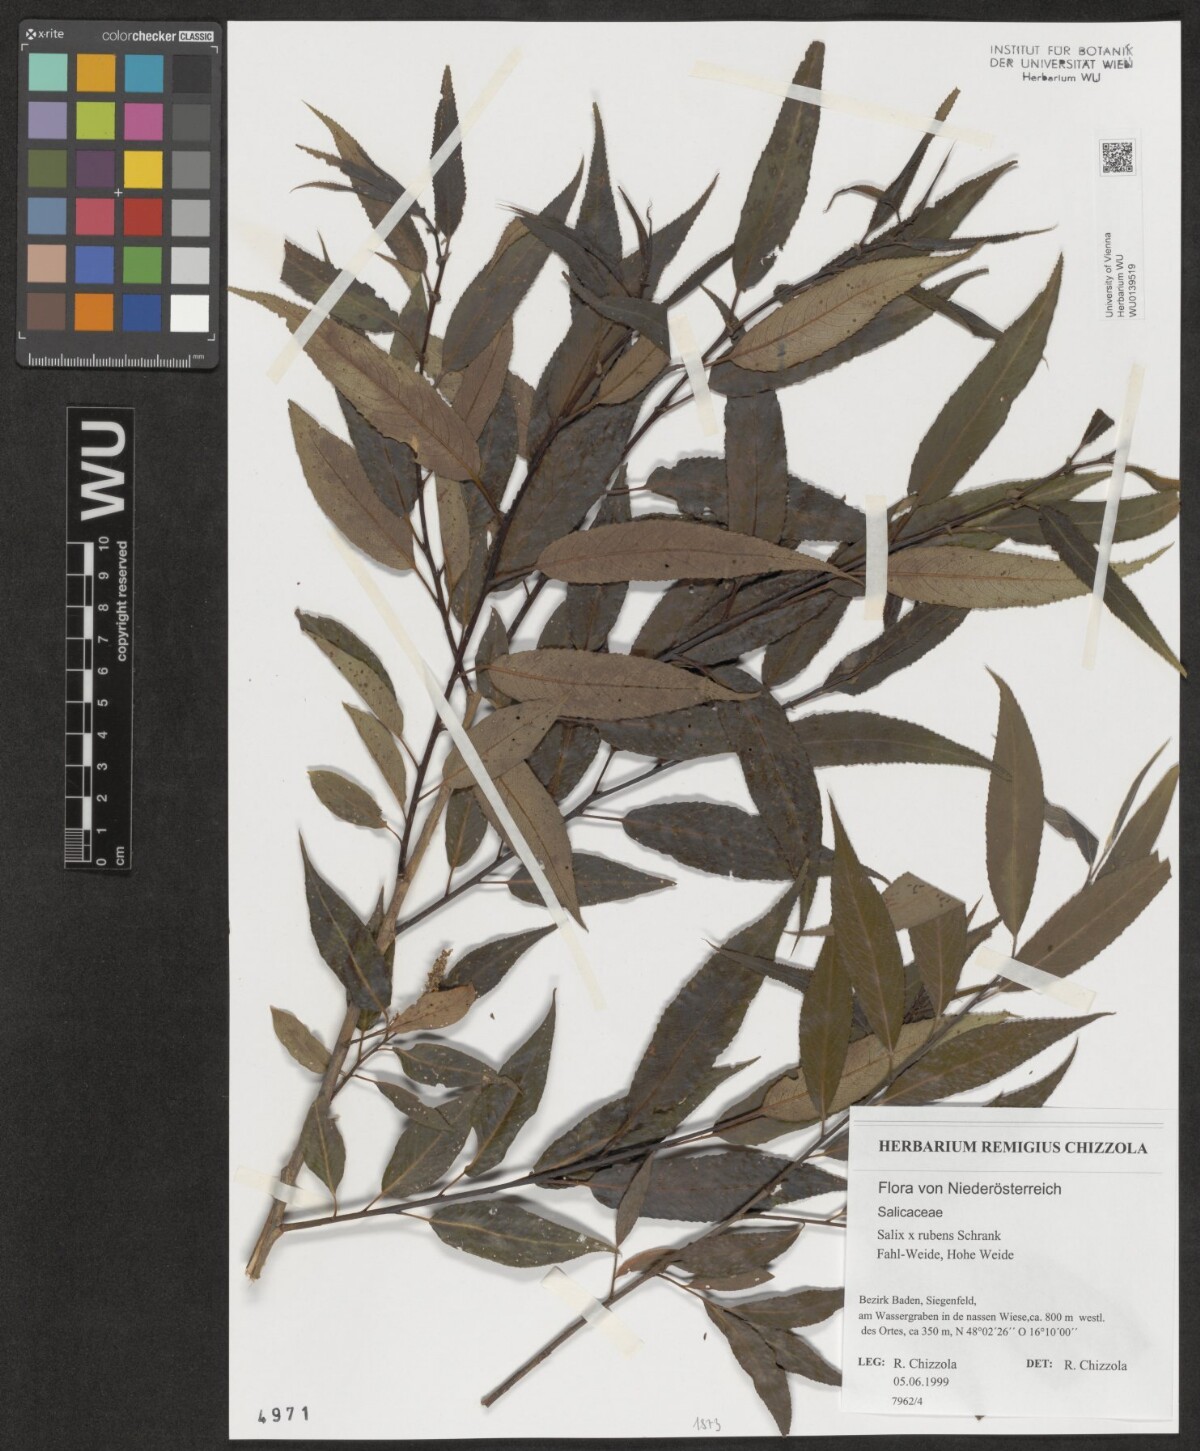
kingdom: Plantae
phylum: Tracheophyta
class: Magnoliopsida
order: Malpighiales
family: Salicaceae
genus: Salix
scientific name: Salix rubens
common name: Hybrid crack willow
